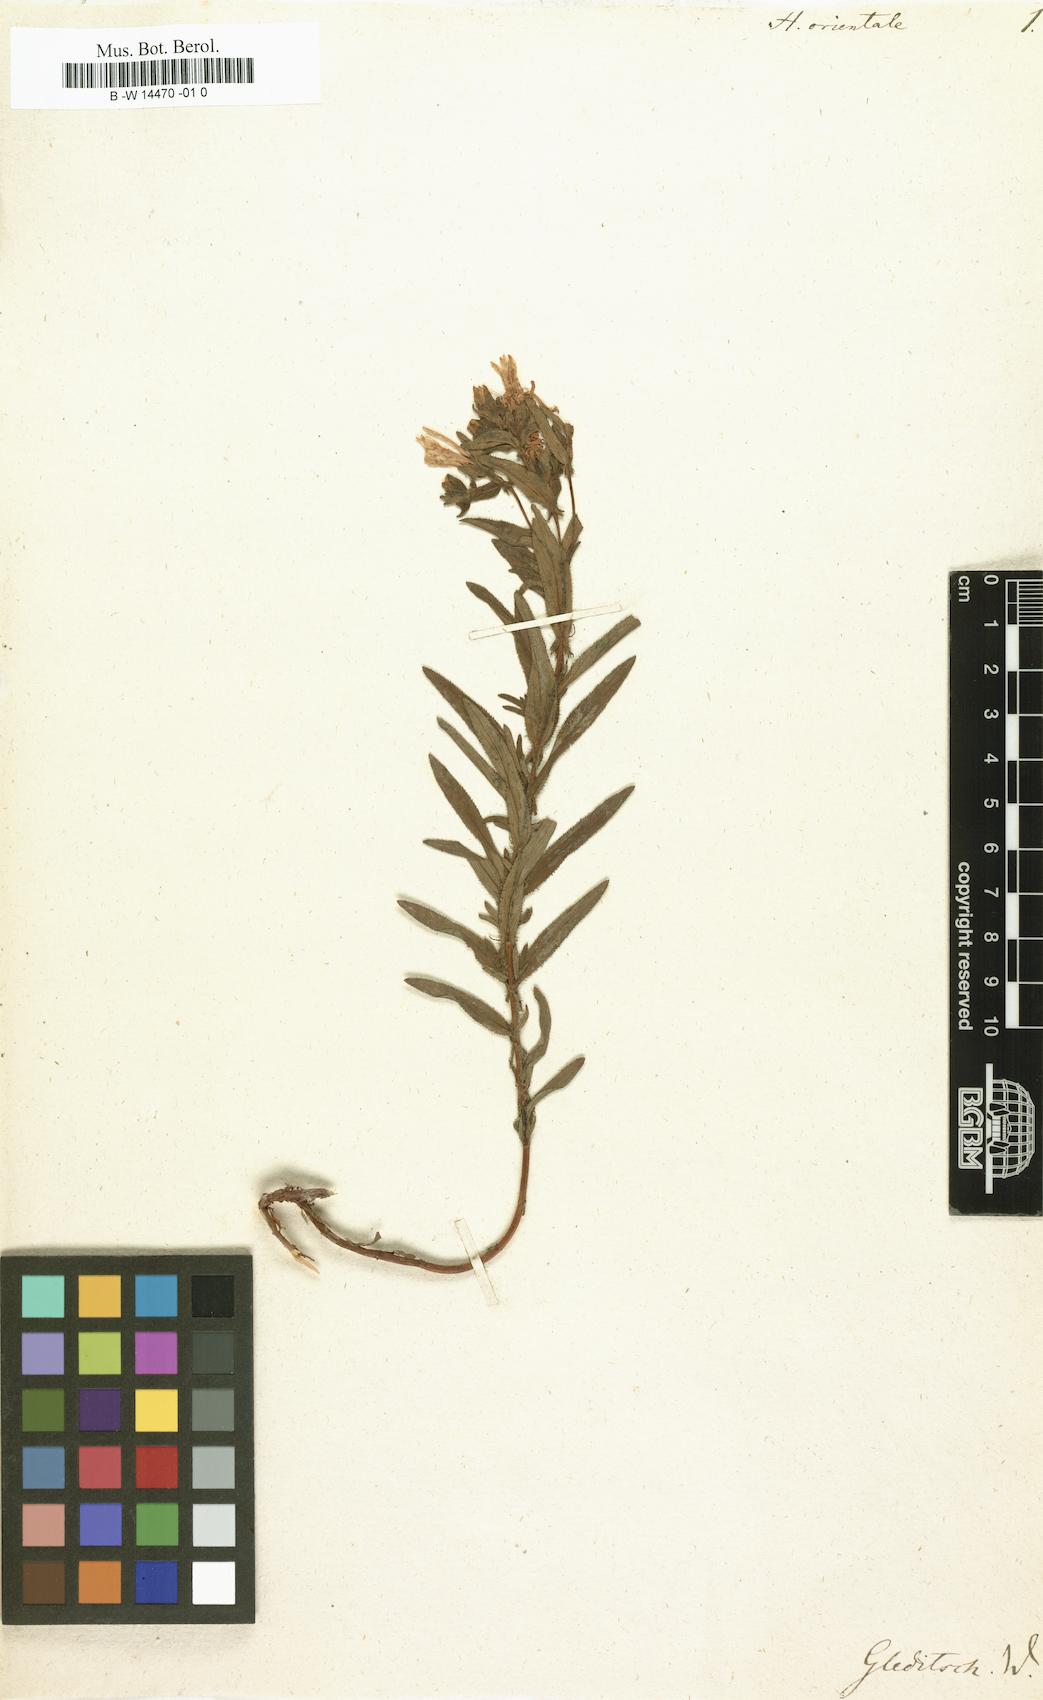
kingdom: Plantae
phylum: Tracheophyta
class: Magnoliopsida
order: Malpighiales
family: Hypericaceae
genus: Hypericum
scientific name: Hypericum orientale
